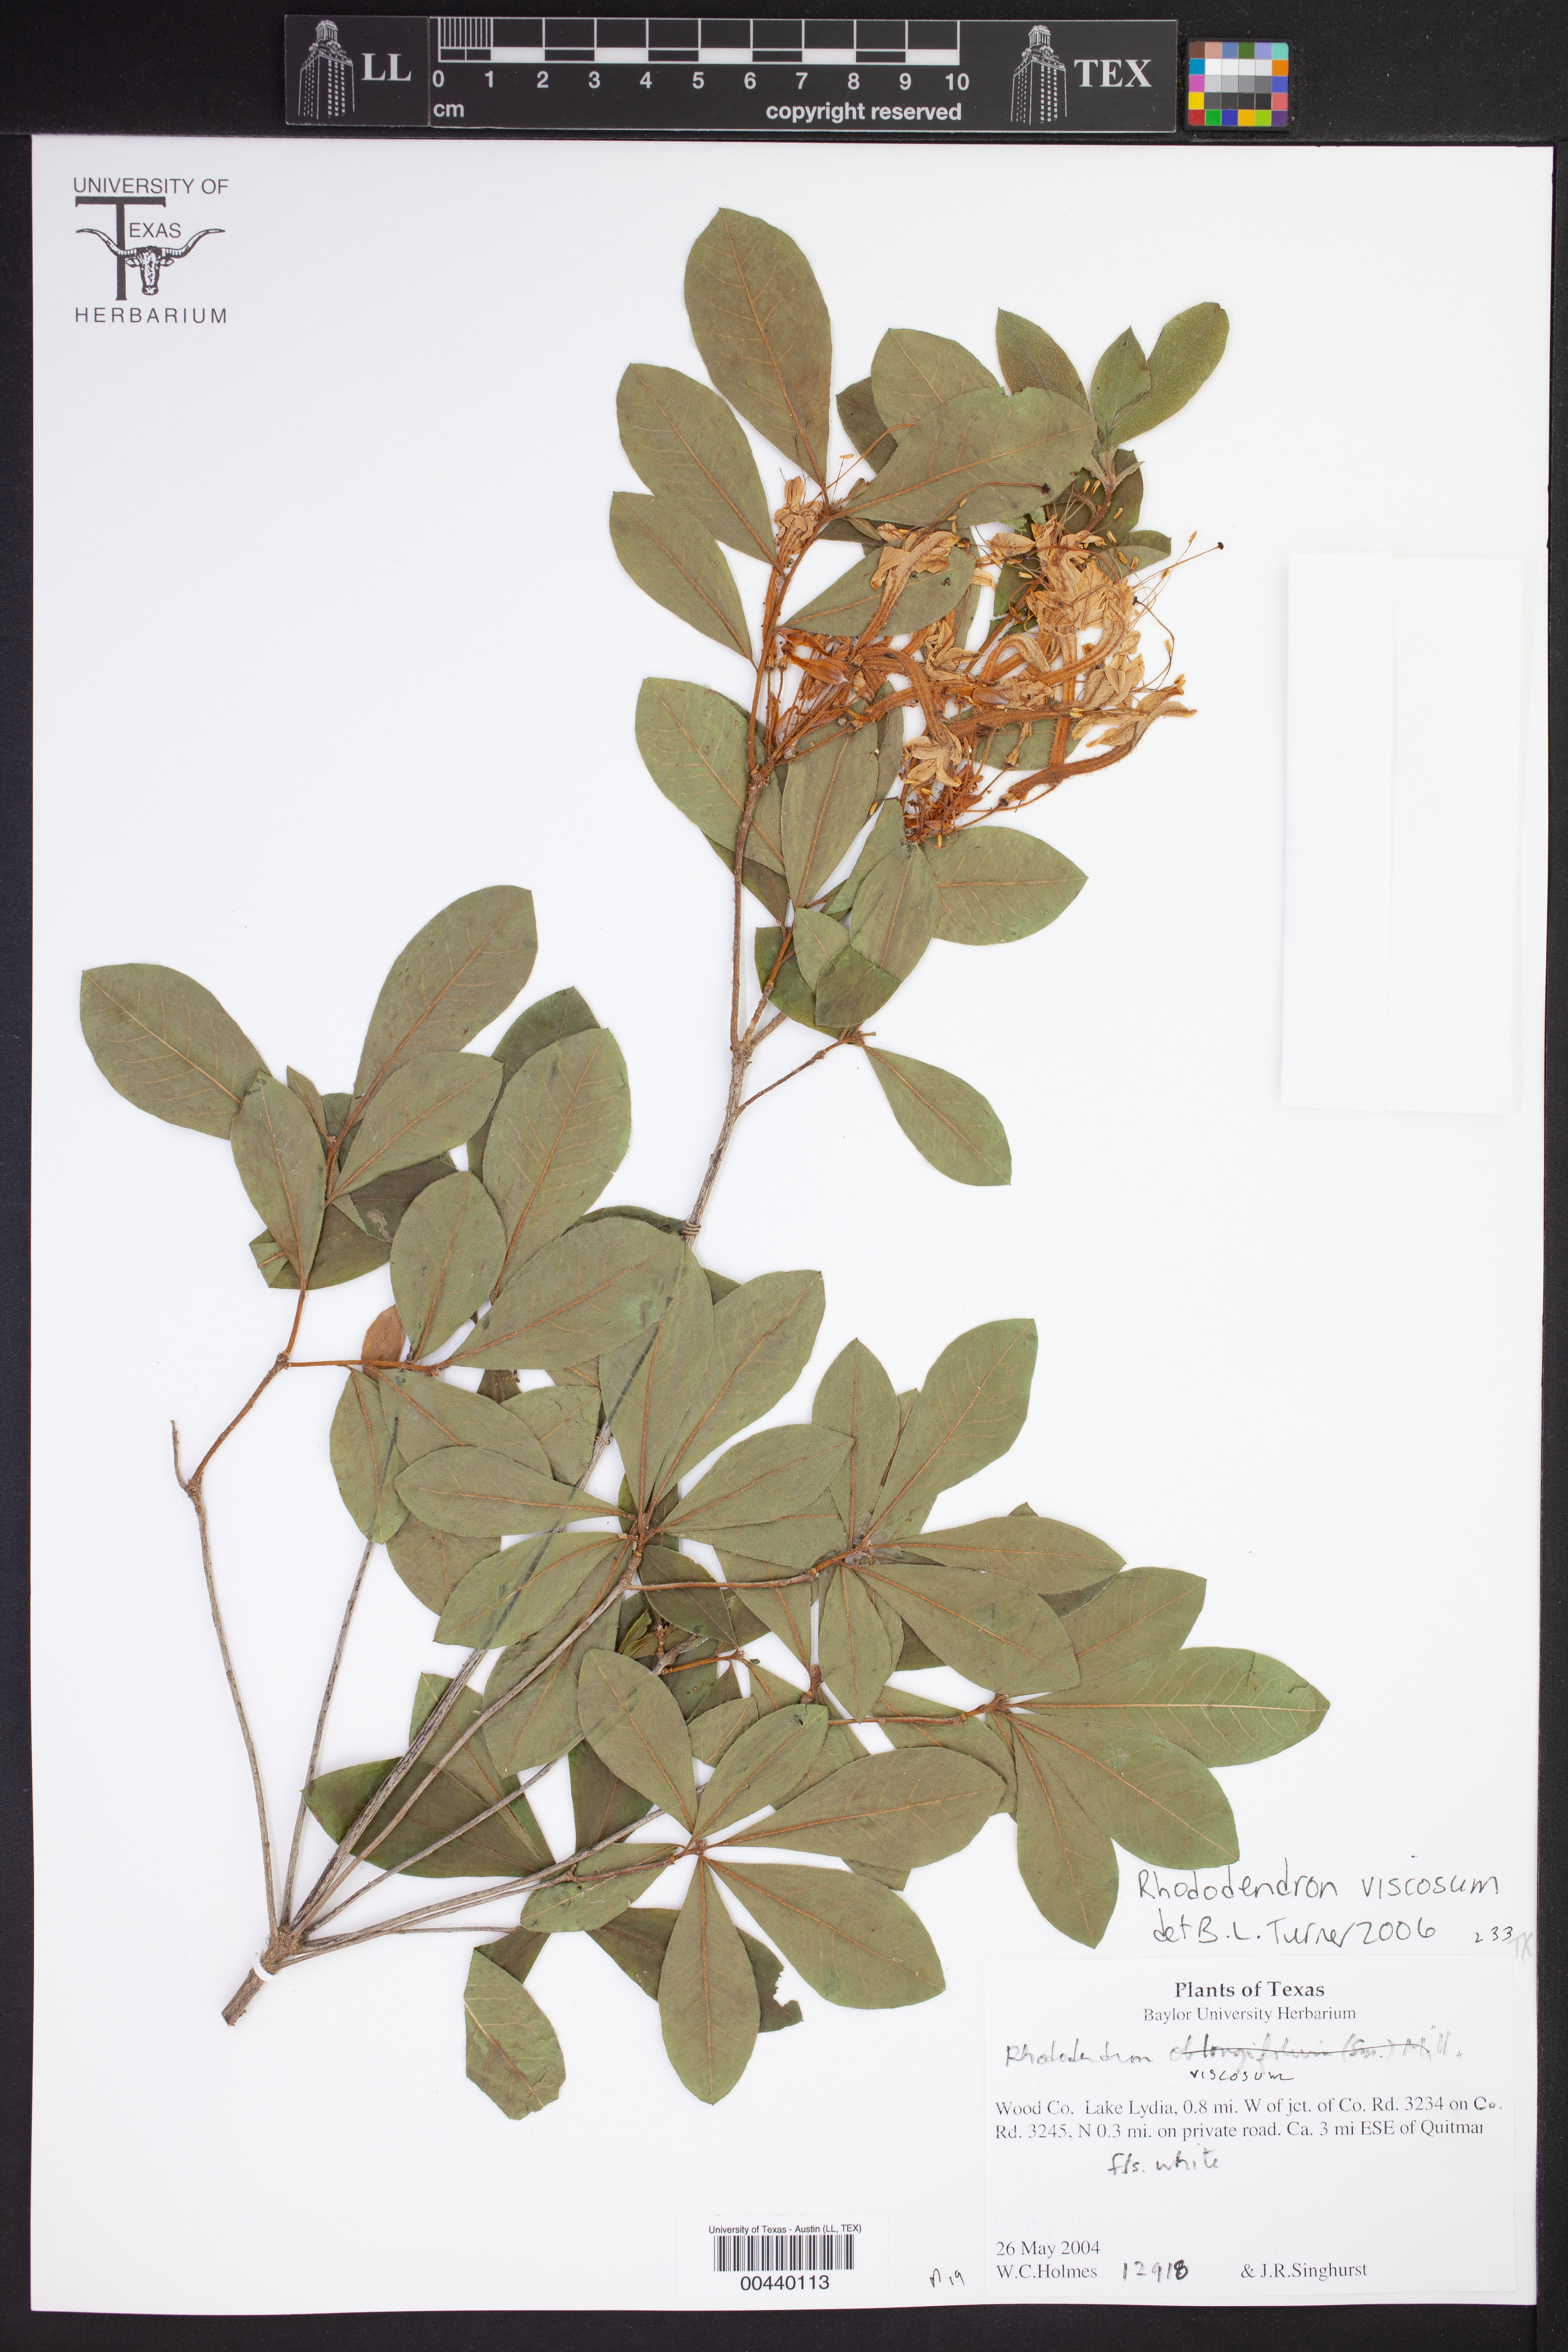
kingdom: Plantae
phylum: Tracheophyta
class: Magnoliopsida
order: Ericales
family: Ericaceae
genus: Rhododendron
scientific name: Rhododendron viscosum
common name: Clammy azalea
